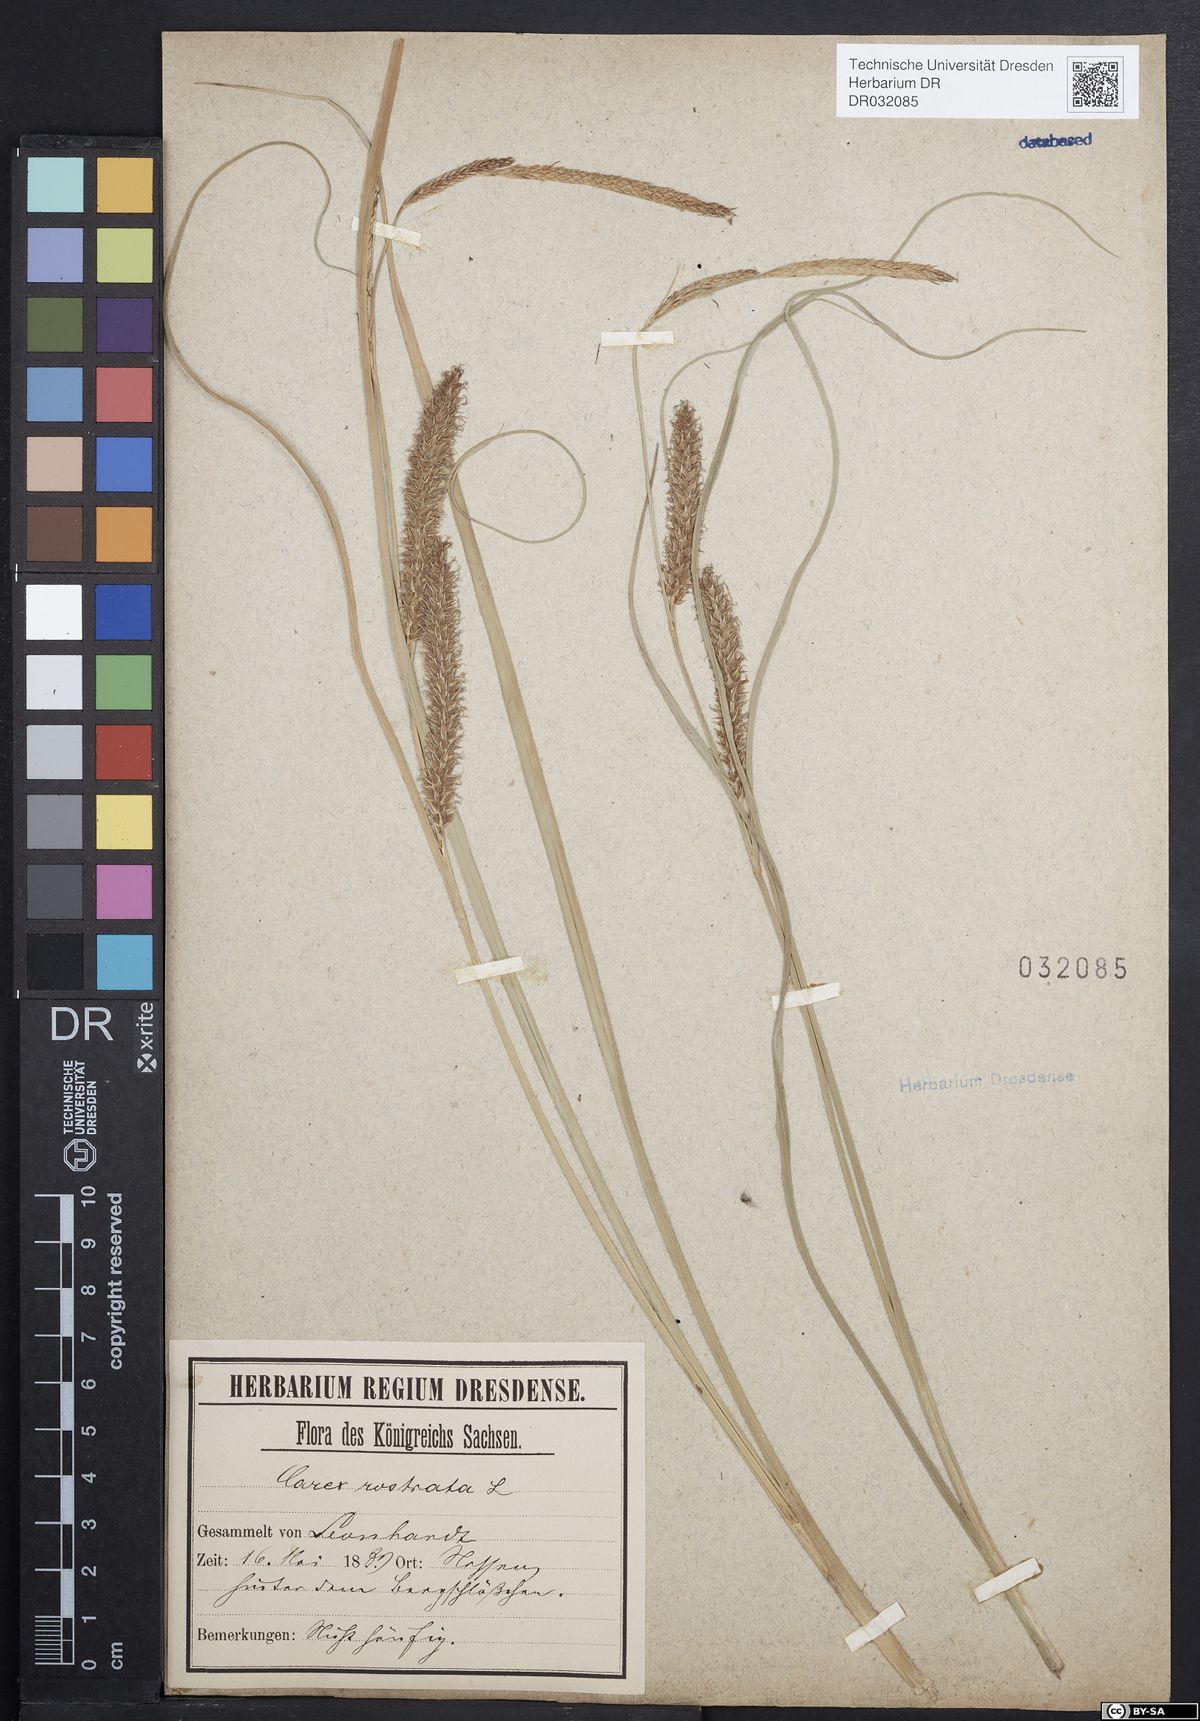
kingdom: Plantae
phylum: Tracheophyta
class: Liliopsida
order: Poales
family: Cyperaceae
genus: Carex
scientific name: Carex rostrata
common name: Bottle sedge
